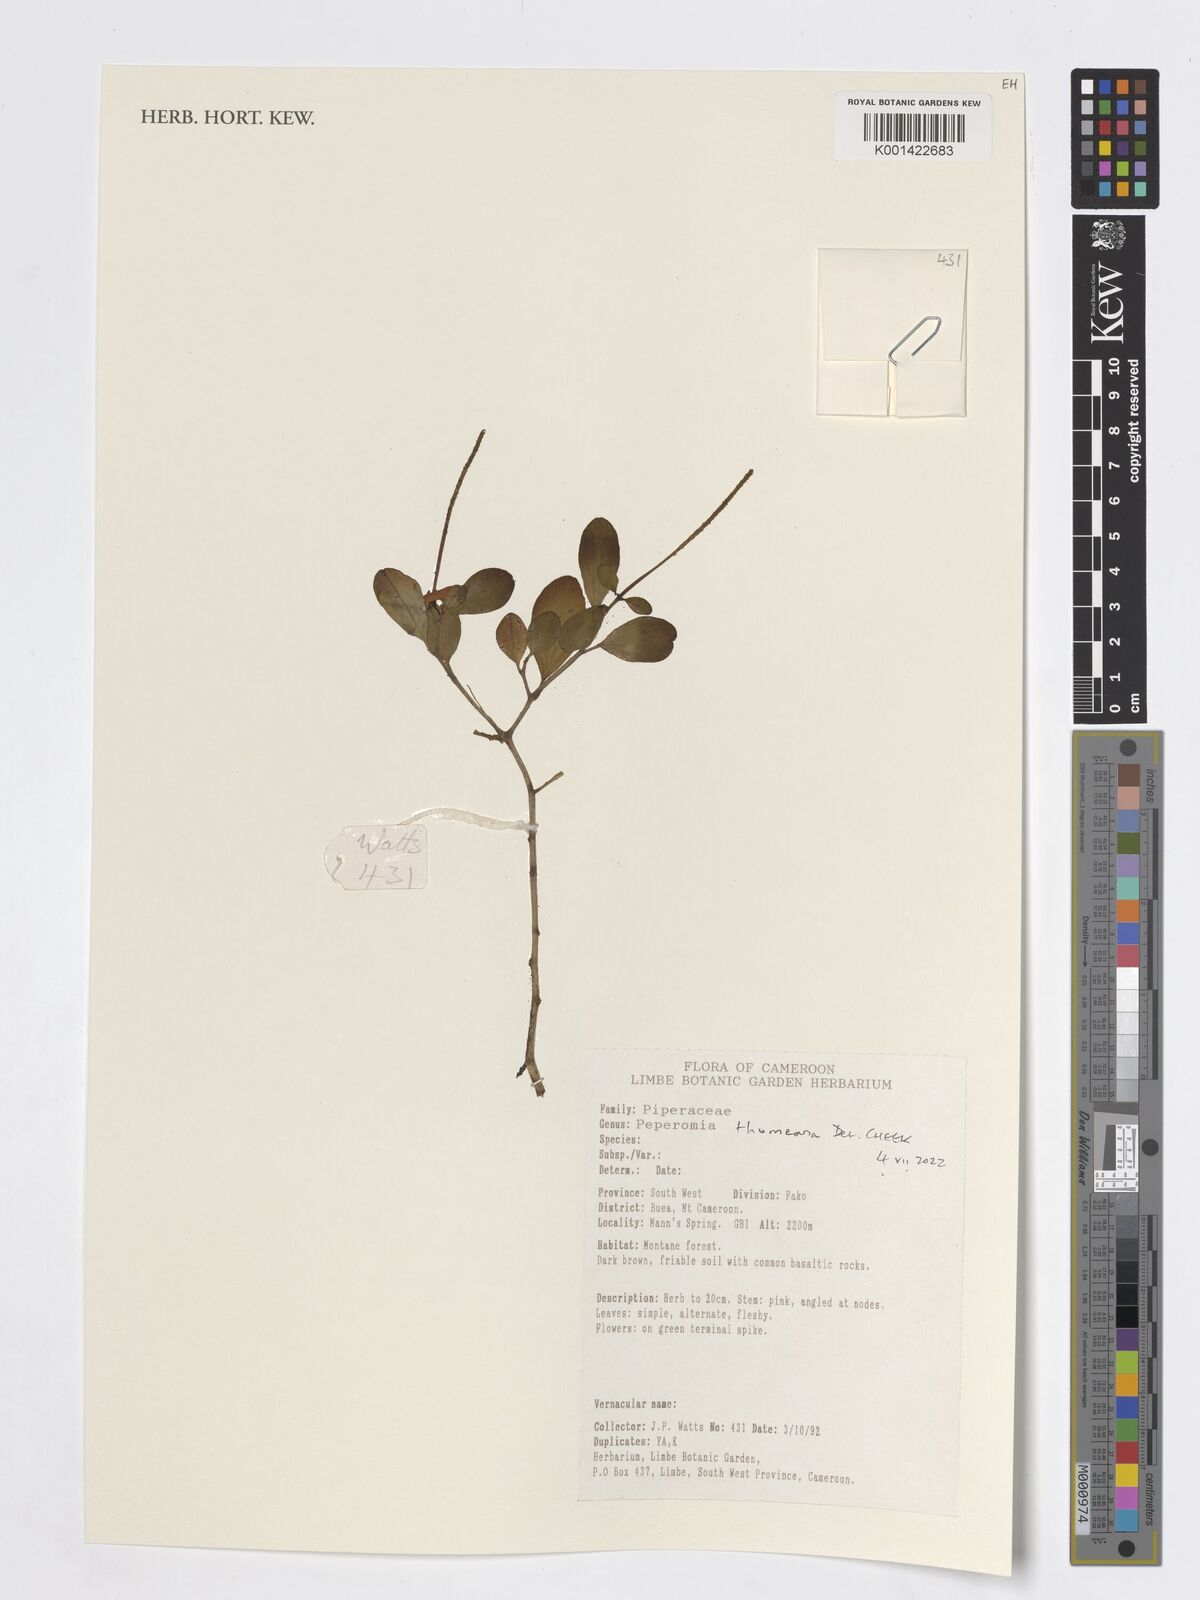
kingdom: Plantae
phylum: Tracheophyta
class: Magnoliopsida
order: Piperales
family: Piperaceae
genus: Peperomia
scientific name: Peperomia thomeana
